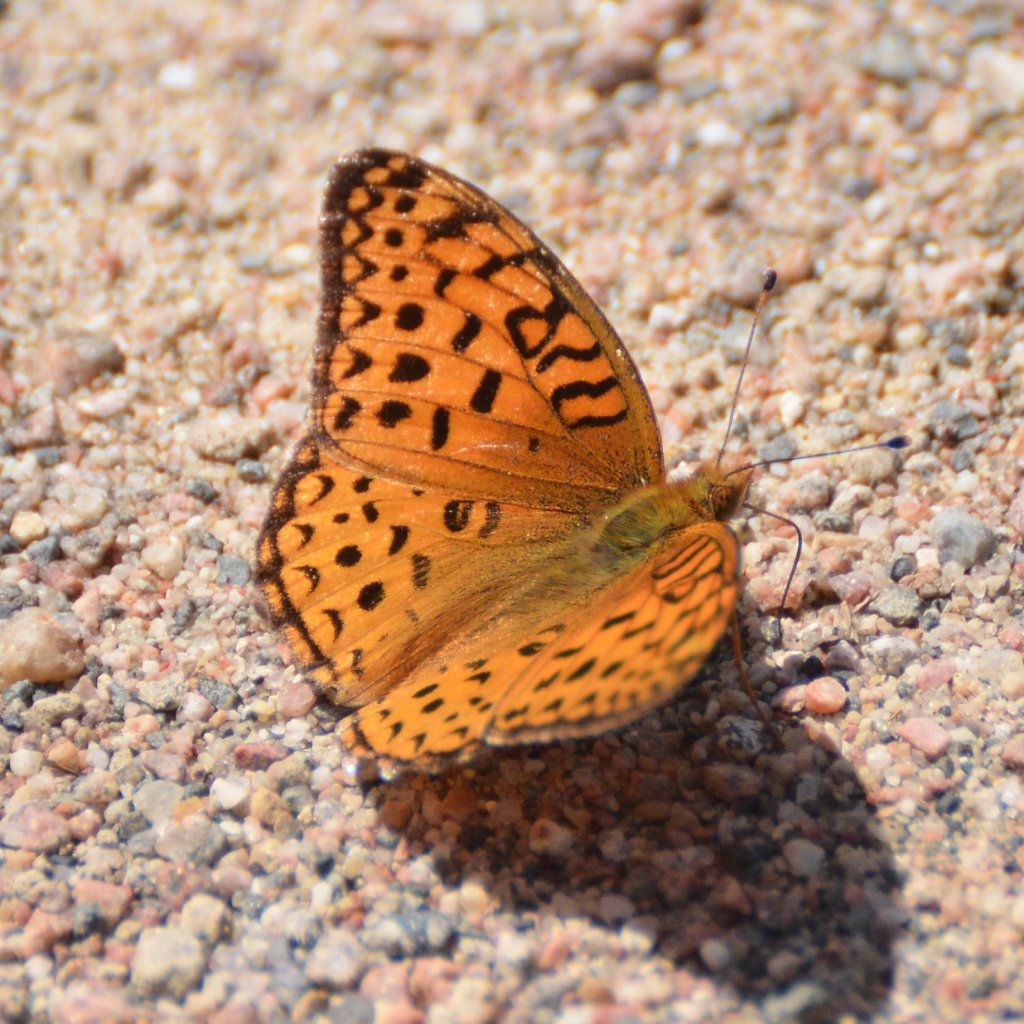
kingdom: Animalia
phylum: Arthropoda
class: Insecta
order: Lepidoptera
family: Nymphalidae
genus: Speyeria
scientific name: Speyeria aphrodite
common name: Aphrodite Fritillary
